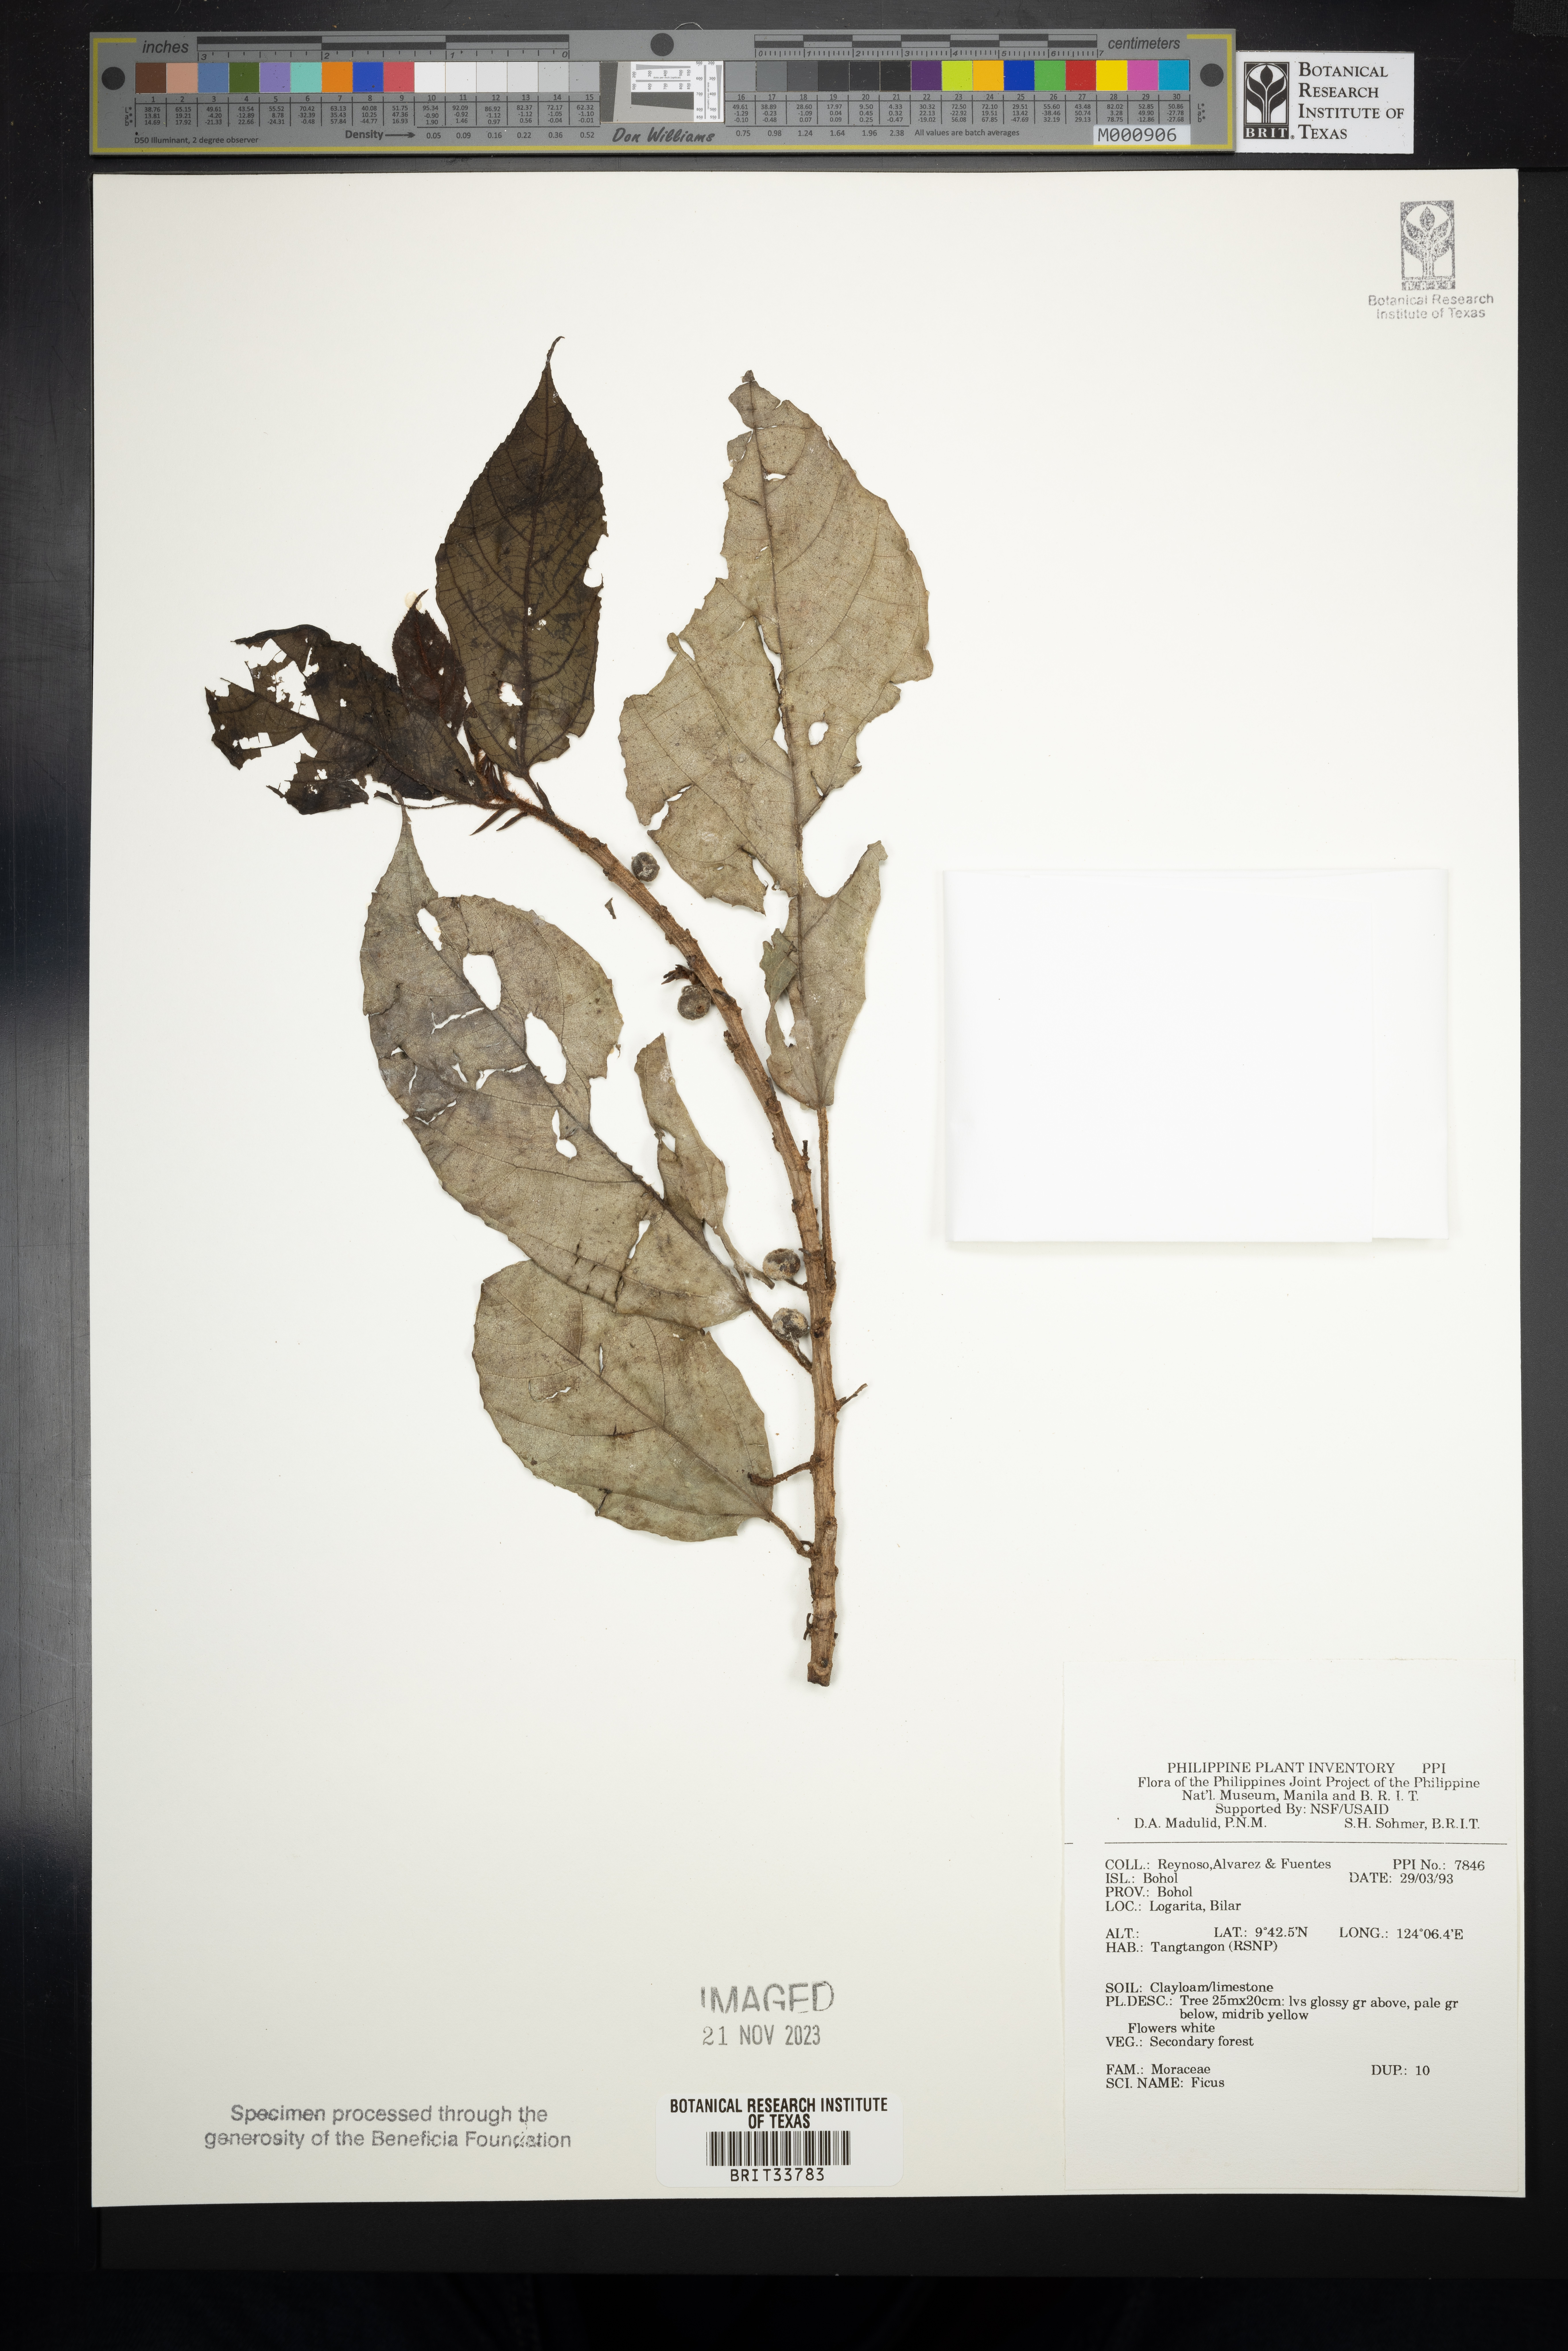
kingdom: Plantae
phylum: Tracheophyta
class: Magnoliopsida
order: Rosales
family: Moraceae
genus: Ficus
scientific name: Ficus
